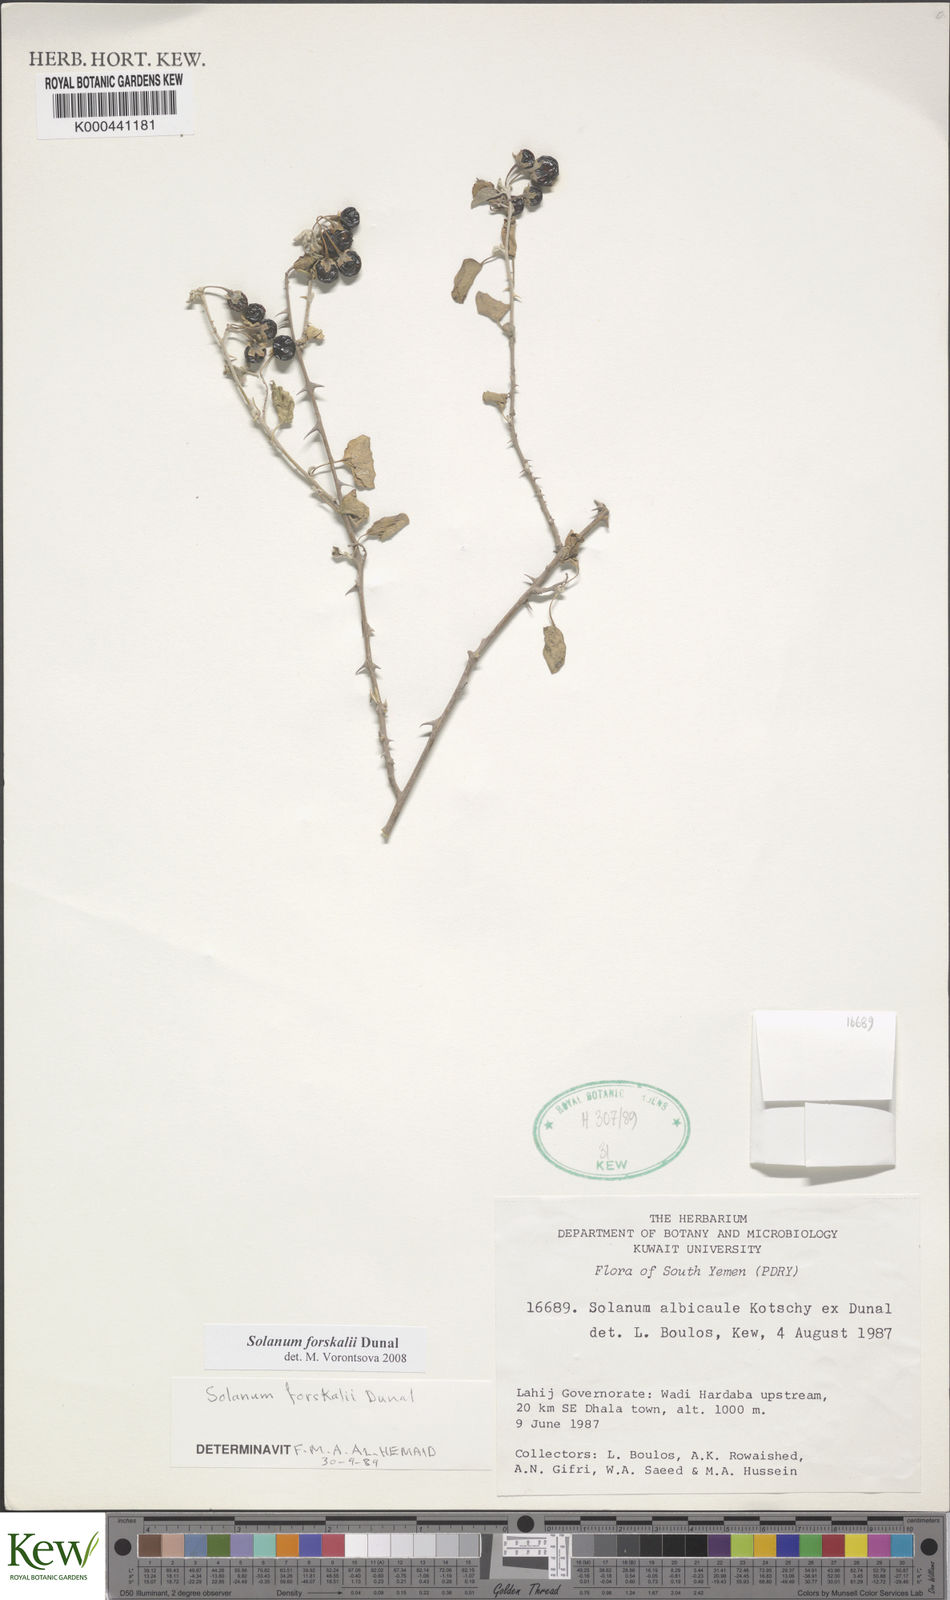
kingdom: Plantae
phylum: Tracheophyta
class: Magnoliopsida
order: Solanales
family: Solanaceae
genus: Solanum
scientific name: Solanum
